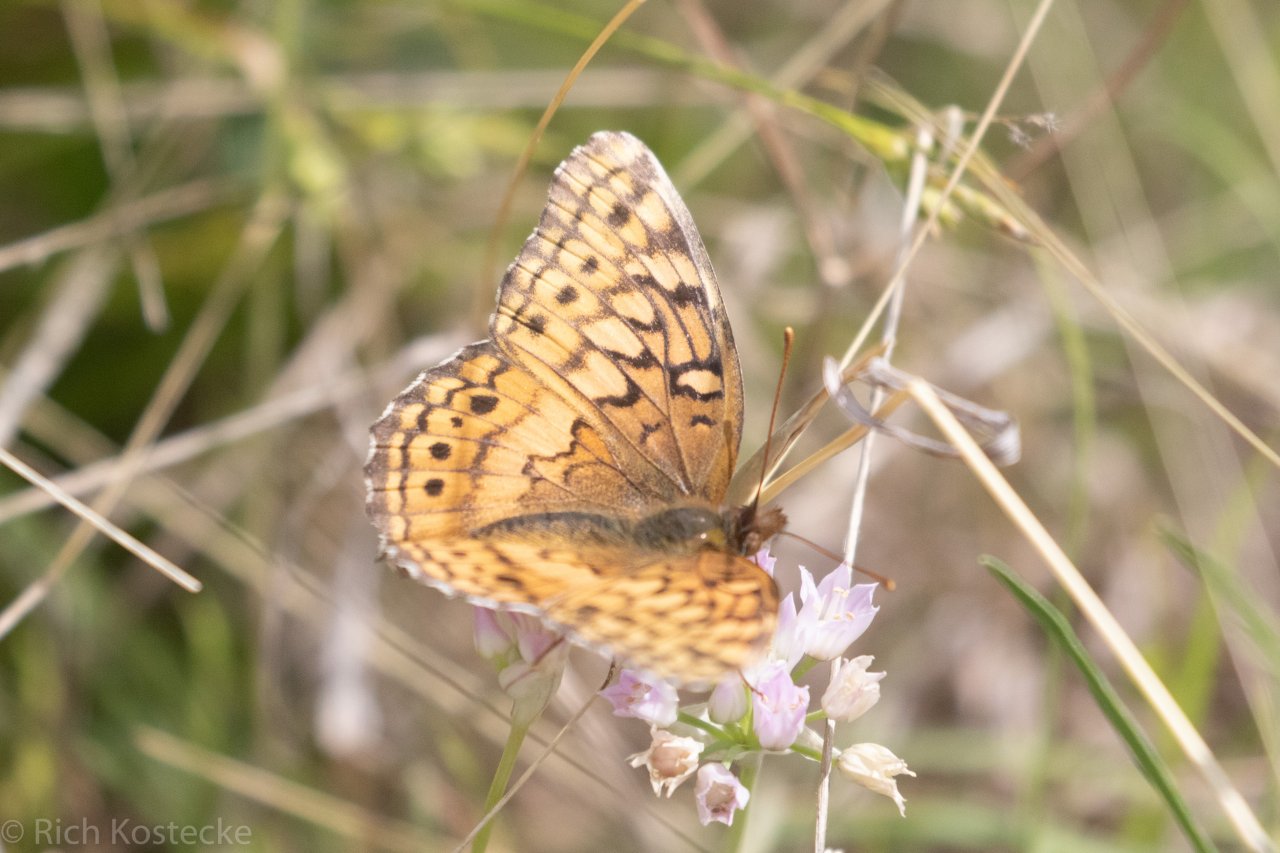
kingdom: Animalia
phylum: Arthropoda
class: Insecta
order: Lepidoptera
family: Nymphalidae
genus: Euptoieta
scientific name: Euptoieta claudia
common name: Variegated Fritillary
